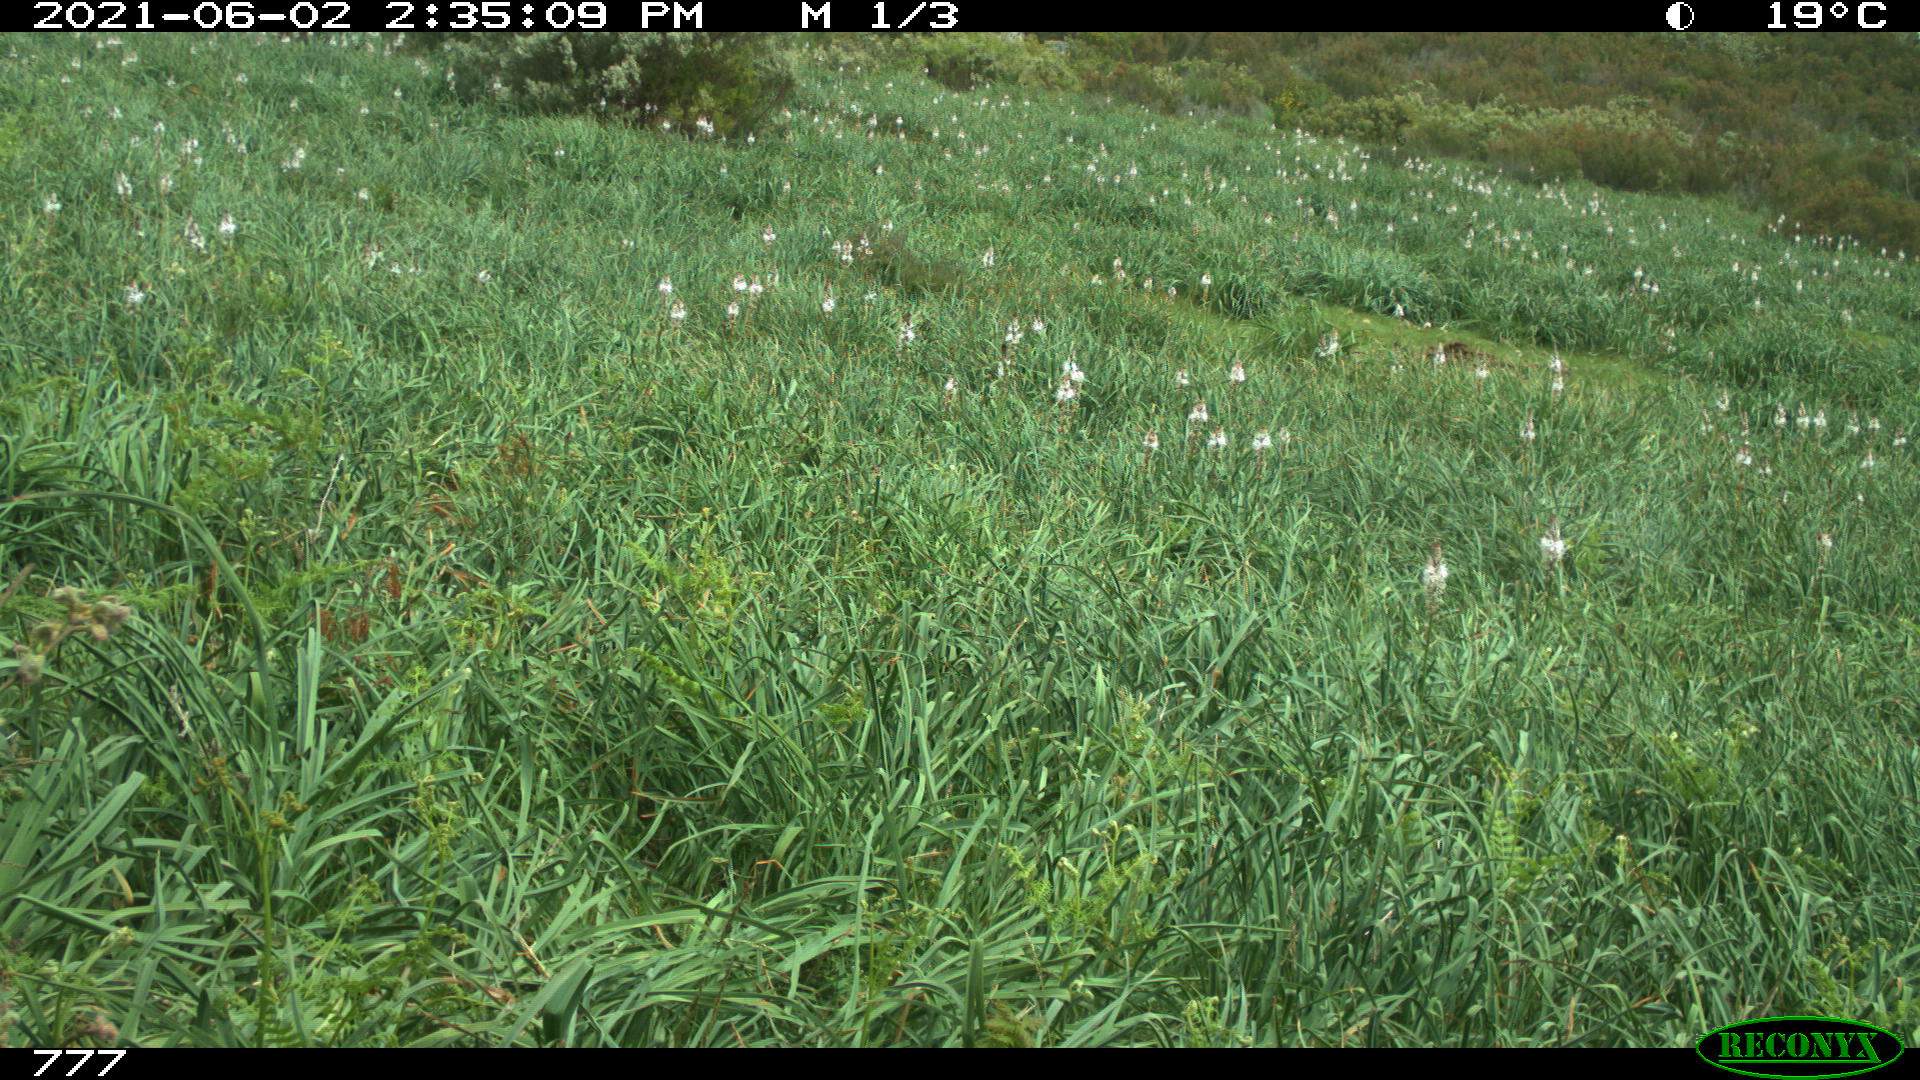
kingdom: Animalia
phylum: Chordata
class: Mammalia
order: Artiodactyla
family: Bovidae
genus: Bos
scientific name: Bos taurus
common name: Domesticated cattle
